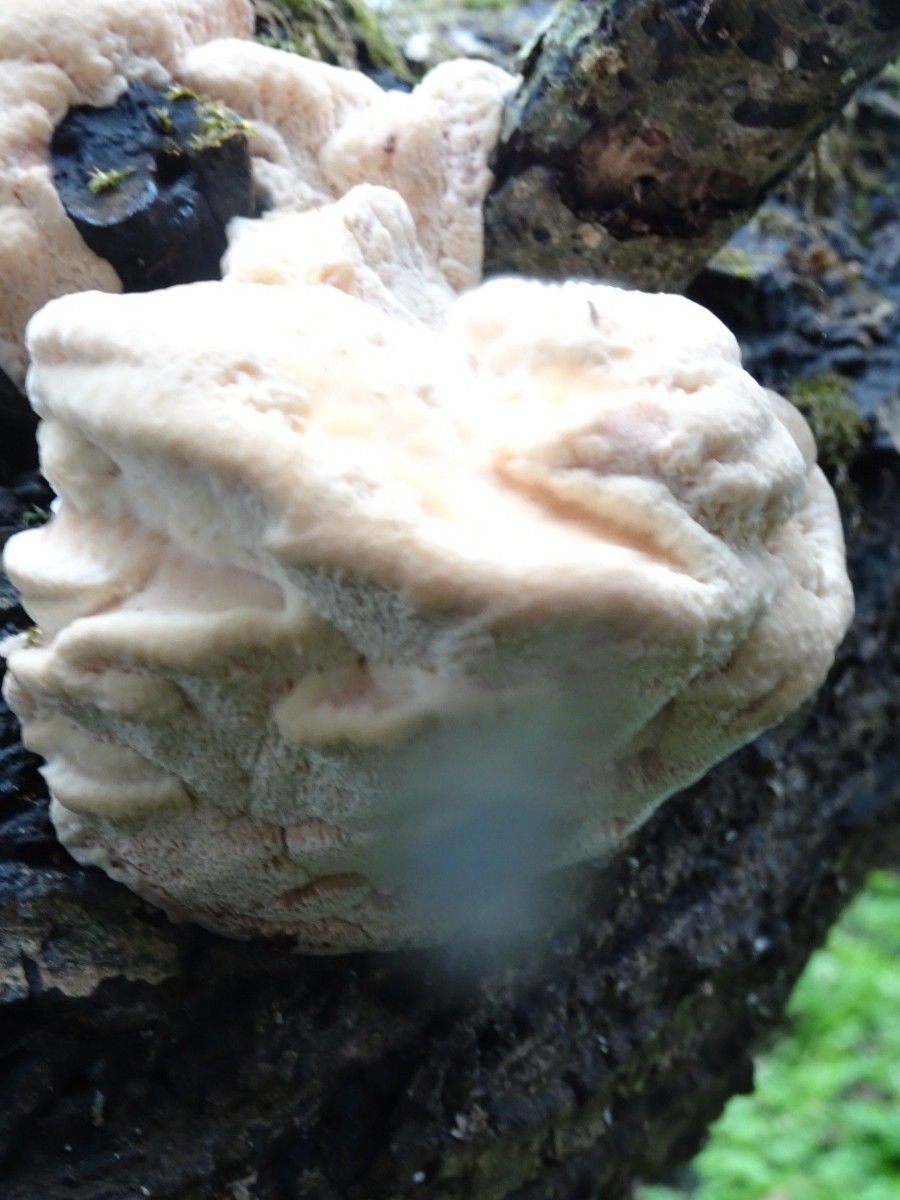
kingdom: Fungi
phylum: Basidiomycota
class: Agaricomycetes
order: Polyporales
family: Podoscyphaceae
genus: Abortiporus
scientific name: Abortiporus biennis
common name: rødmende pjalteporesvamp
